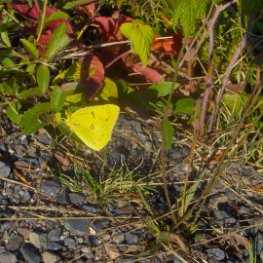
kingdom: Animalia
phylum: Arthropoda
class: Insecta
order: Lepidoptera
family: Pieridae
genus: Colias
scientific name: Colias eurytheme
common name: Orange Sulphur
